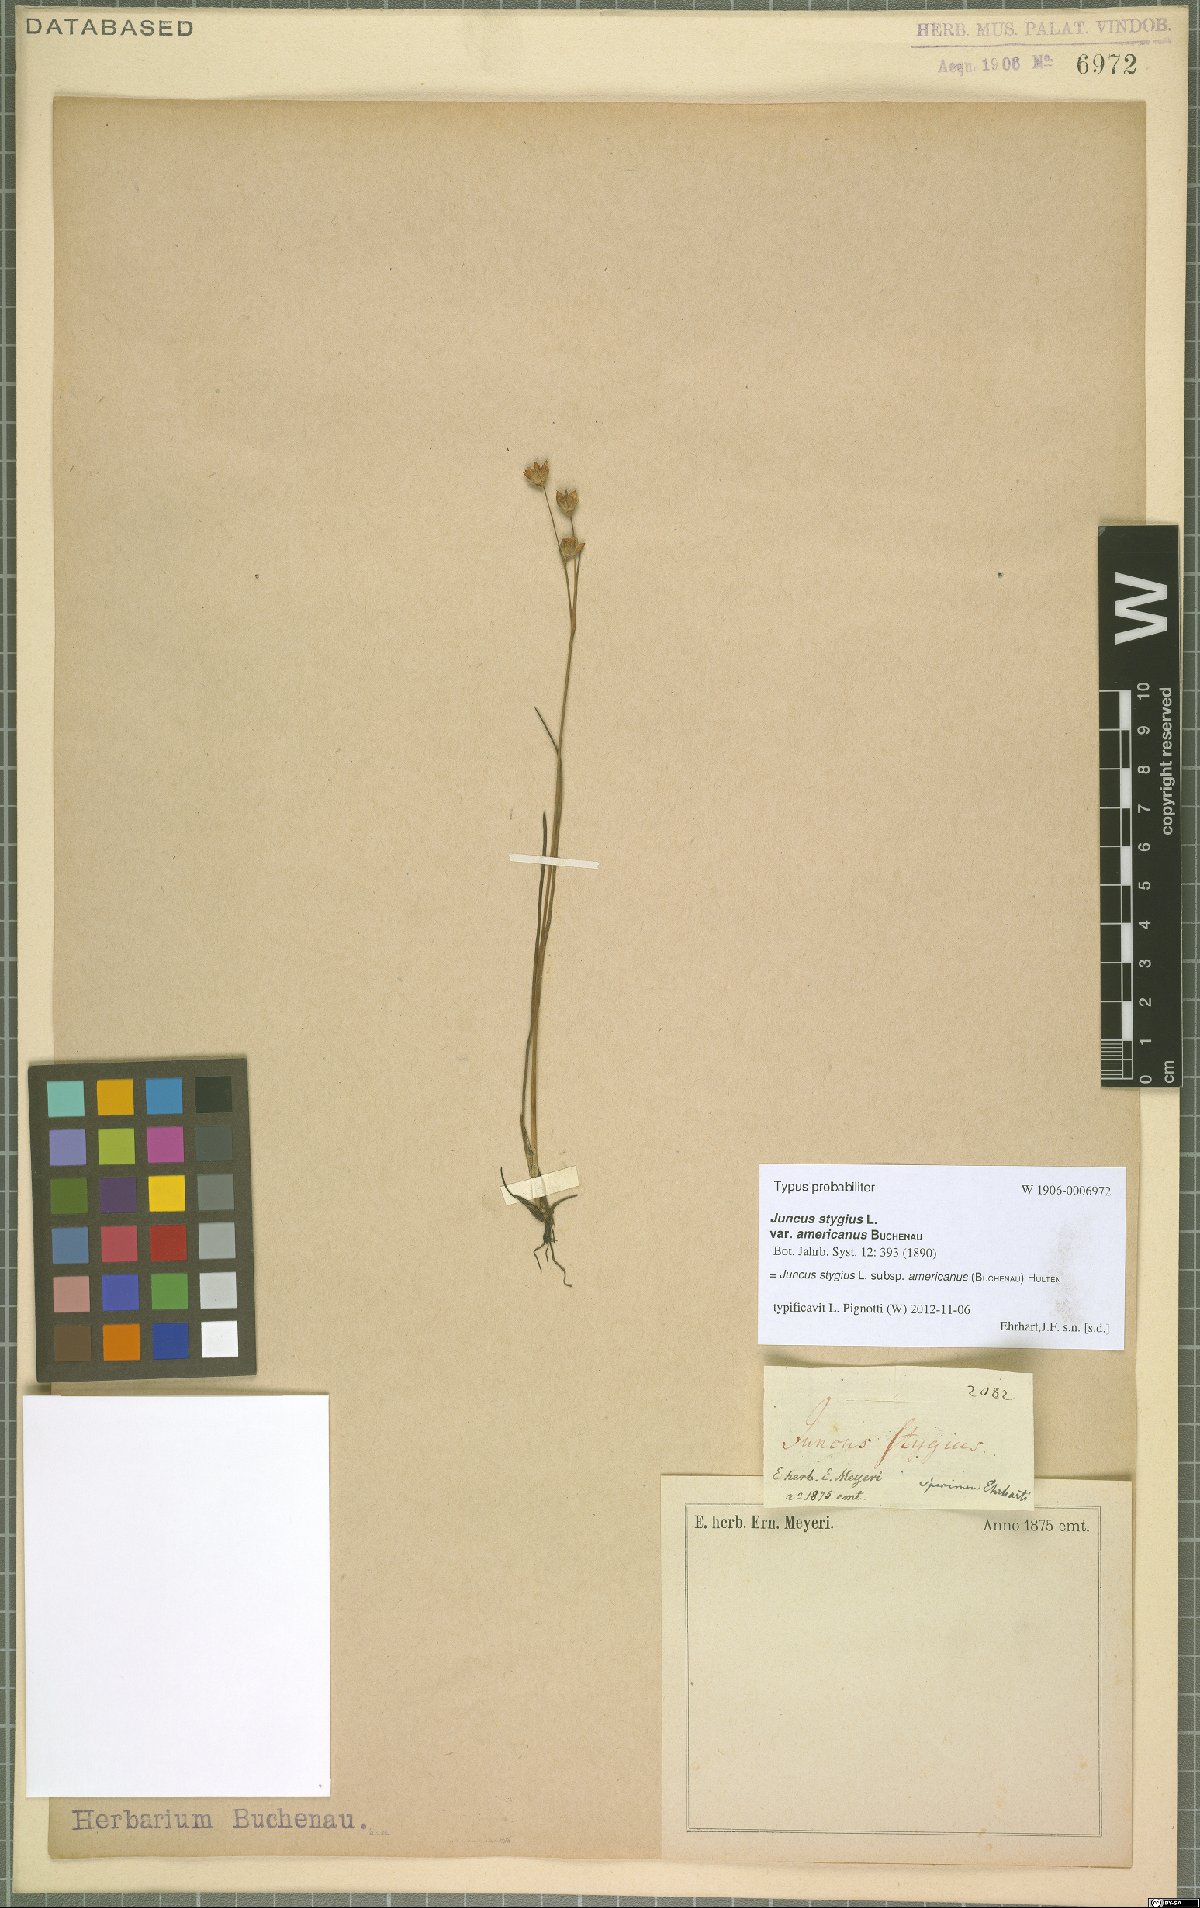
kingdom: Plantae
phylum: Tracheophyta
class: Liliopsida
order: Poales
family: Juncaceae
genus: Juncus
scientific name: Juncus stygius
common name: Bog rush
